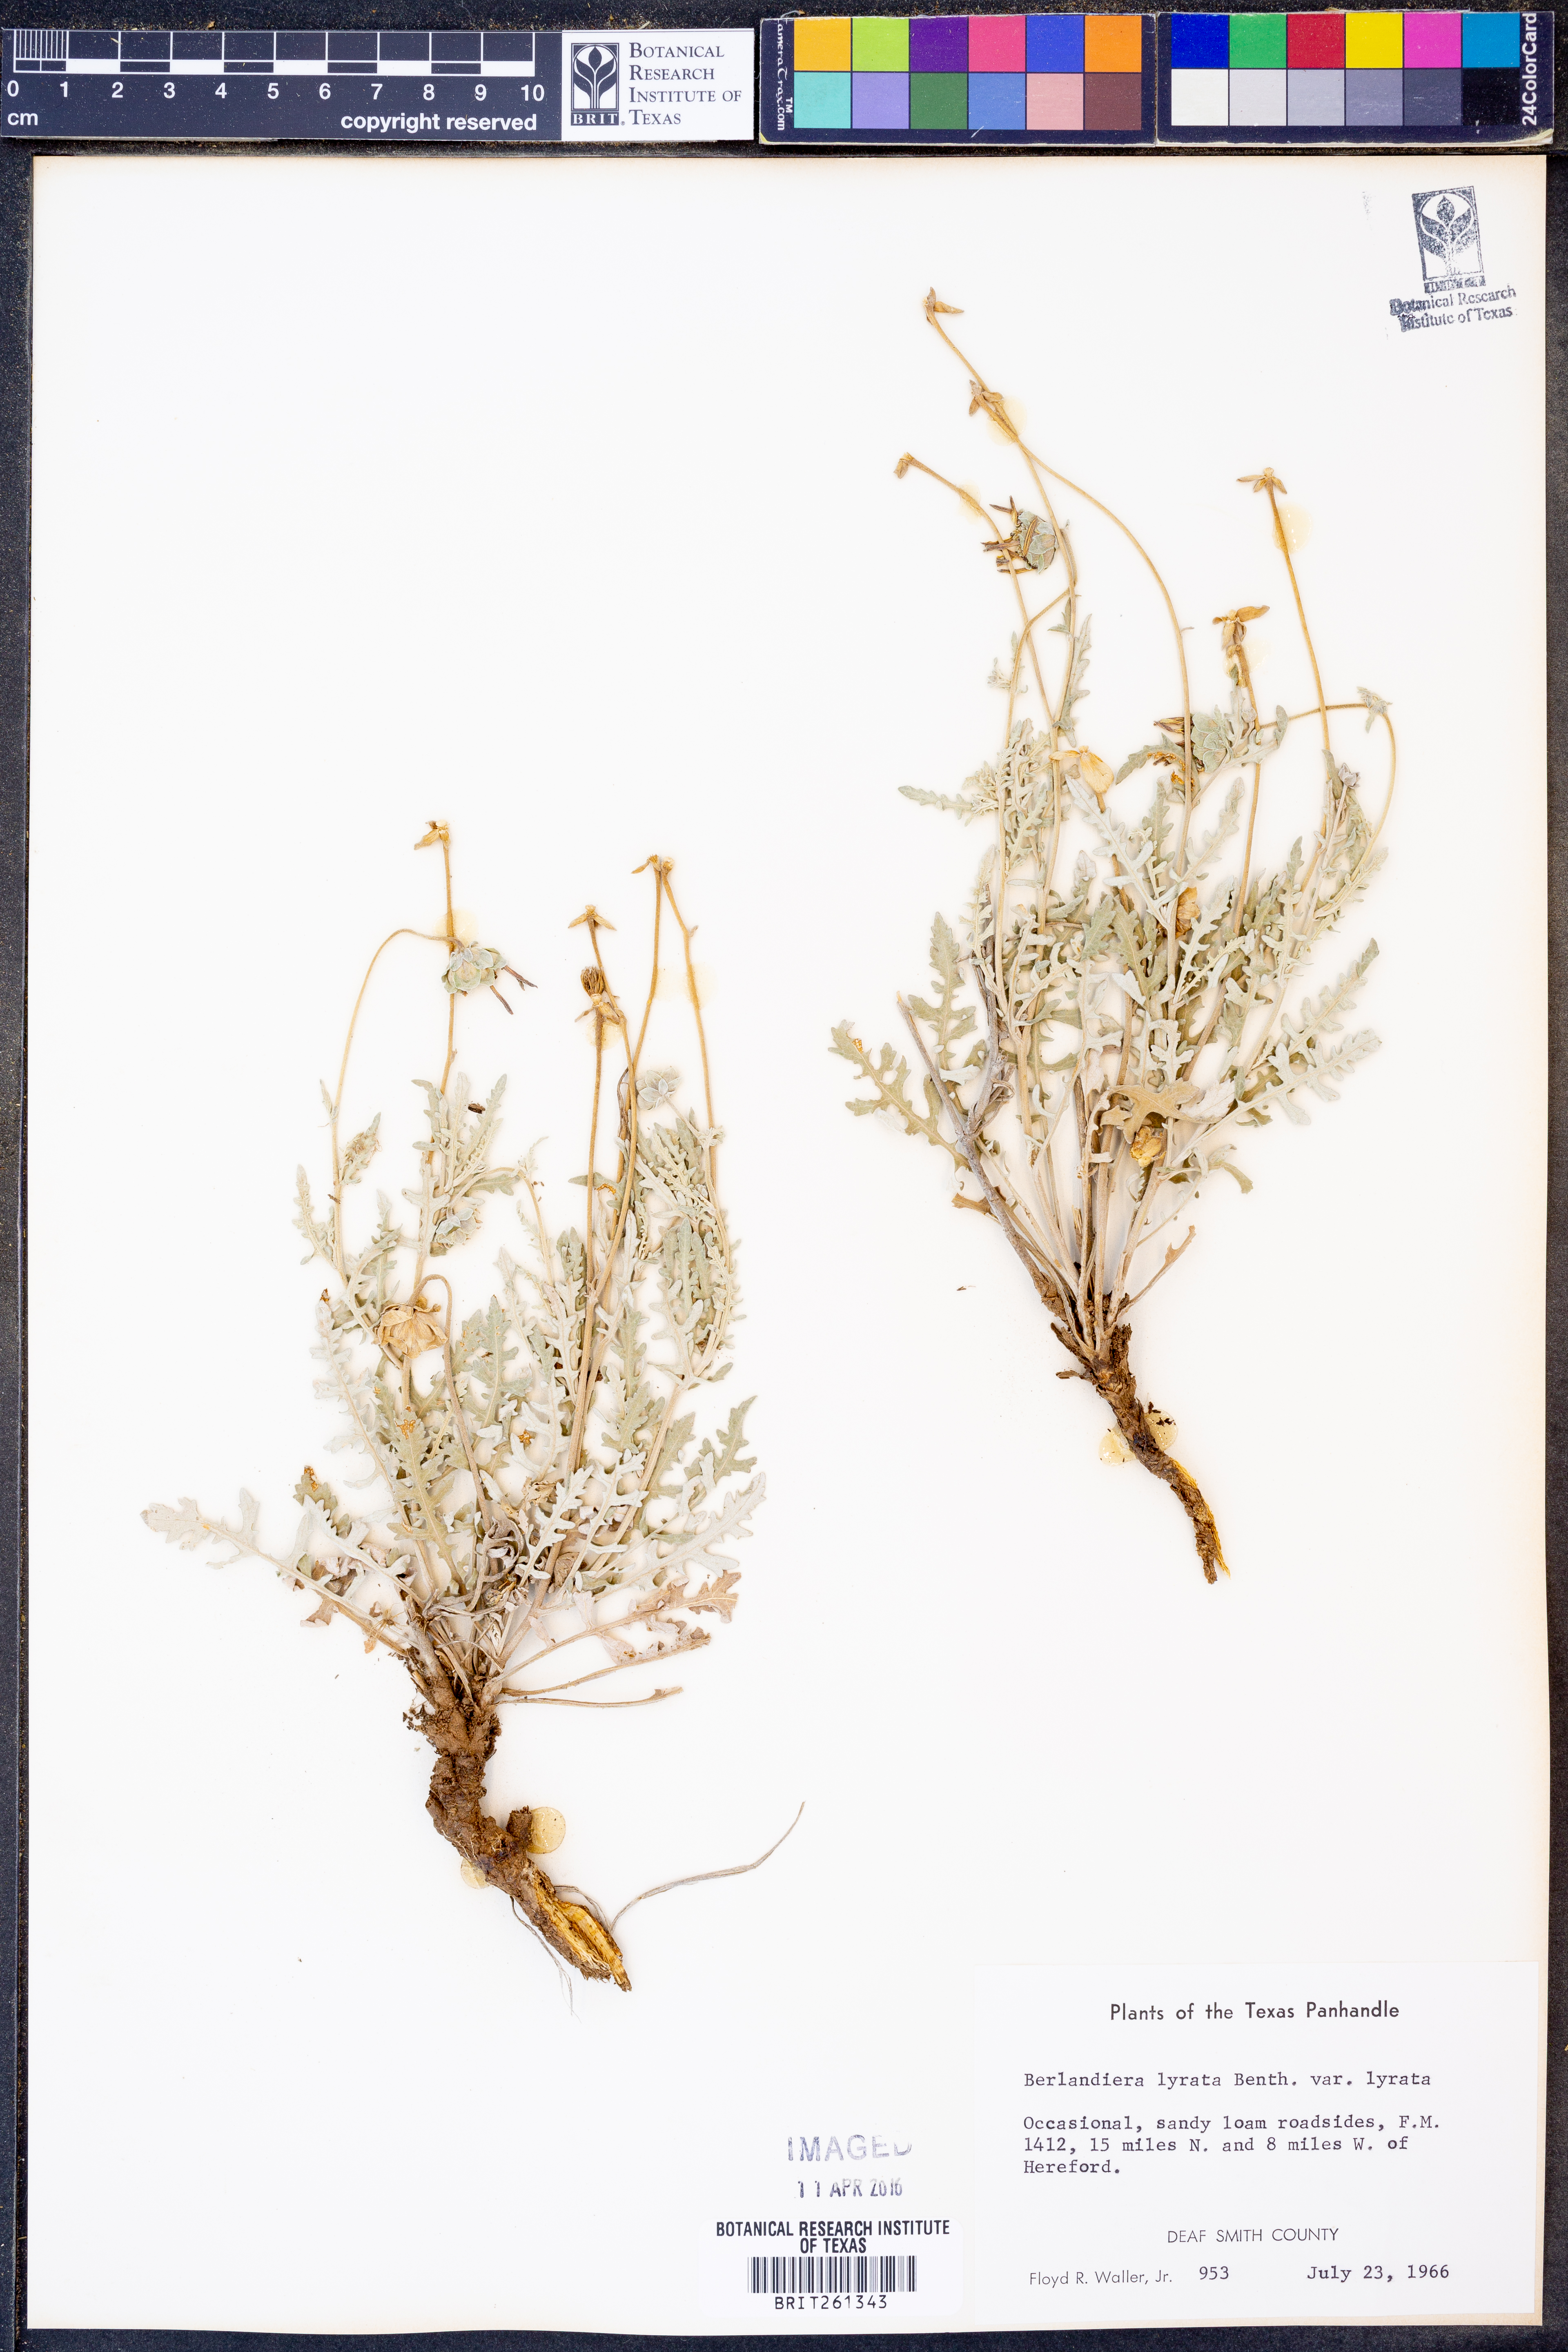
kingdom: Plantae
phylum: Tracheophyta
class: Magnoliopsida
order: Asterales
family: Asteraceae
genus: Berlandiera
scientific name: Berlandiera lyrata
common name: Chocolate-flower
